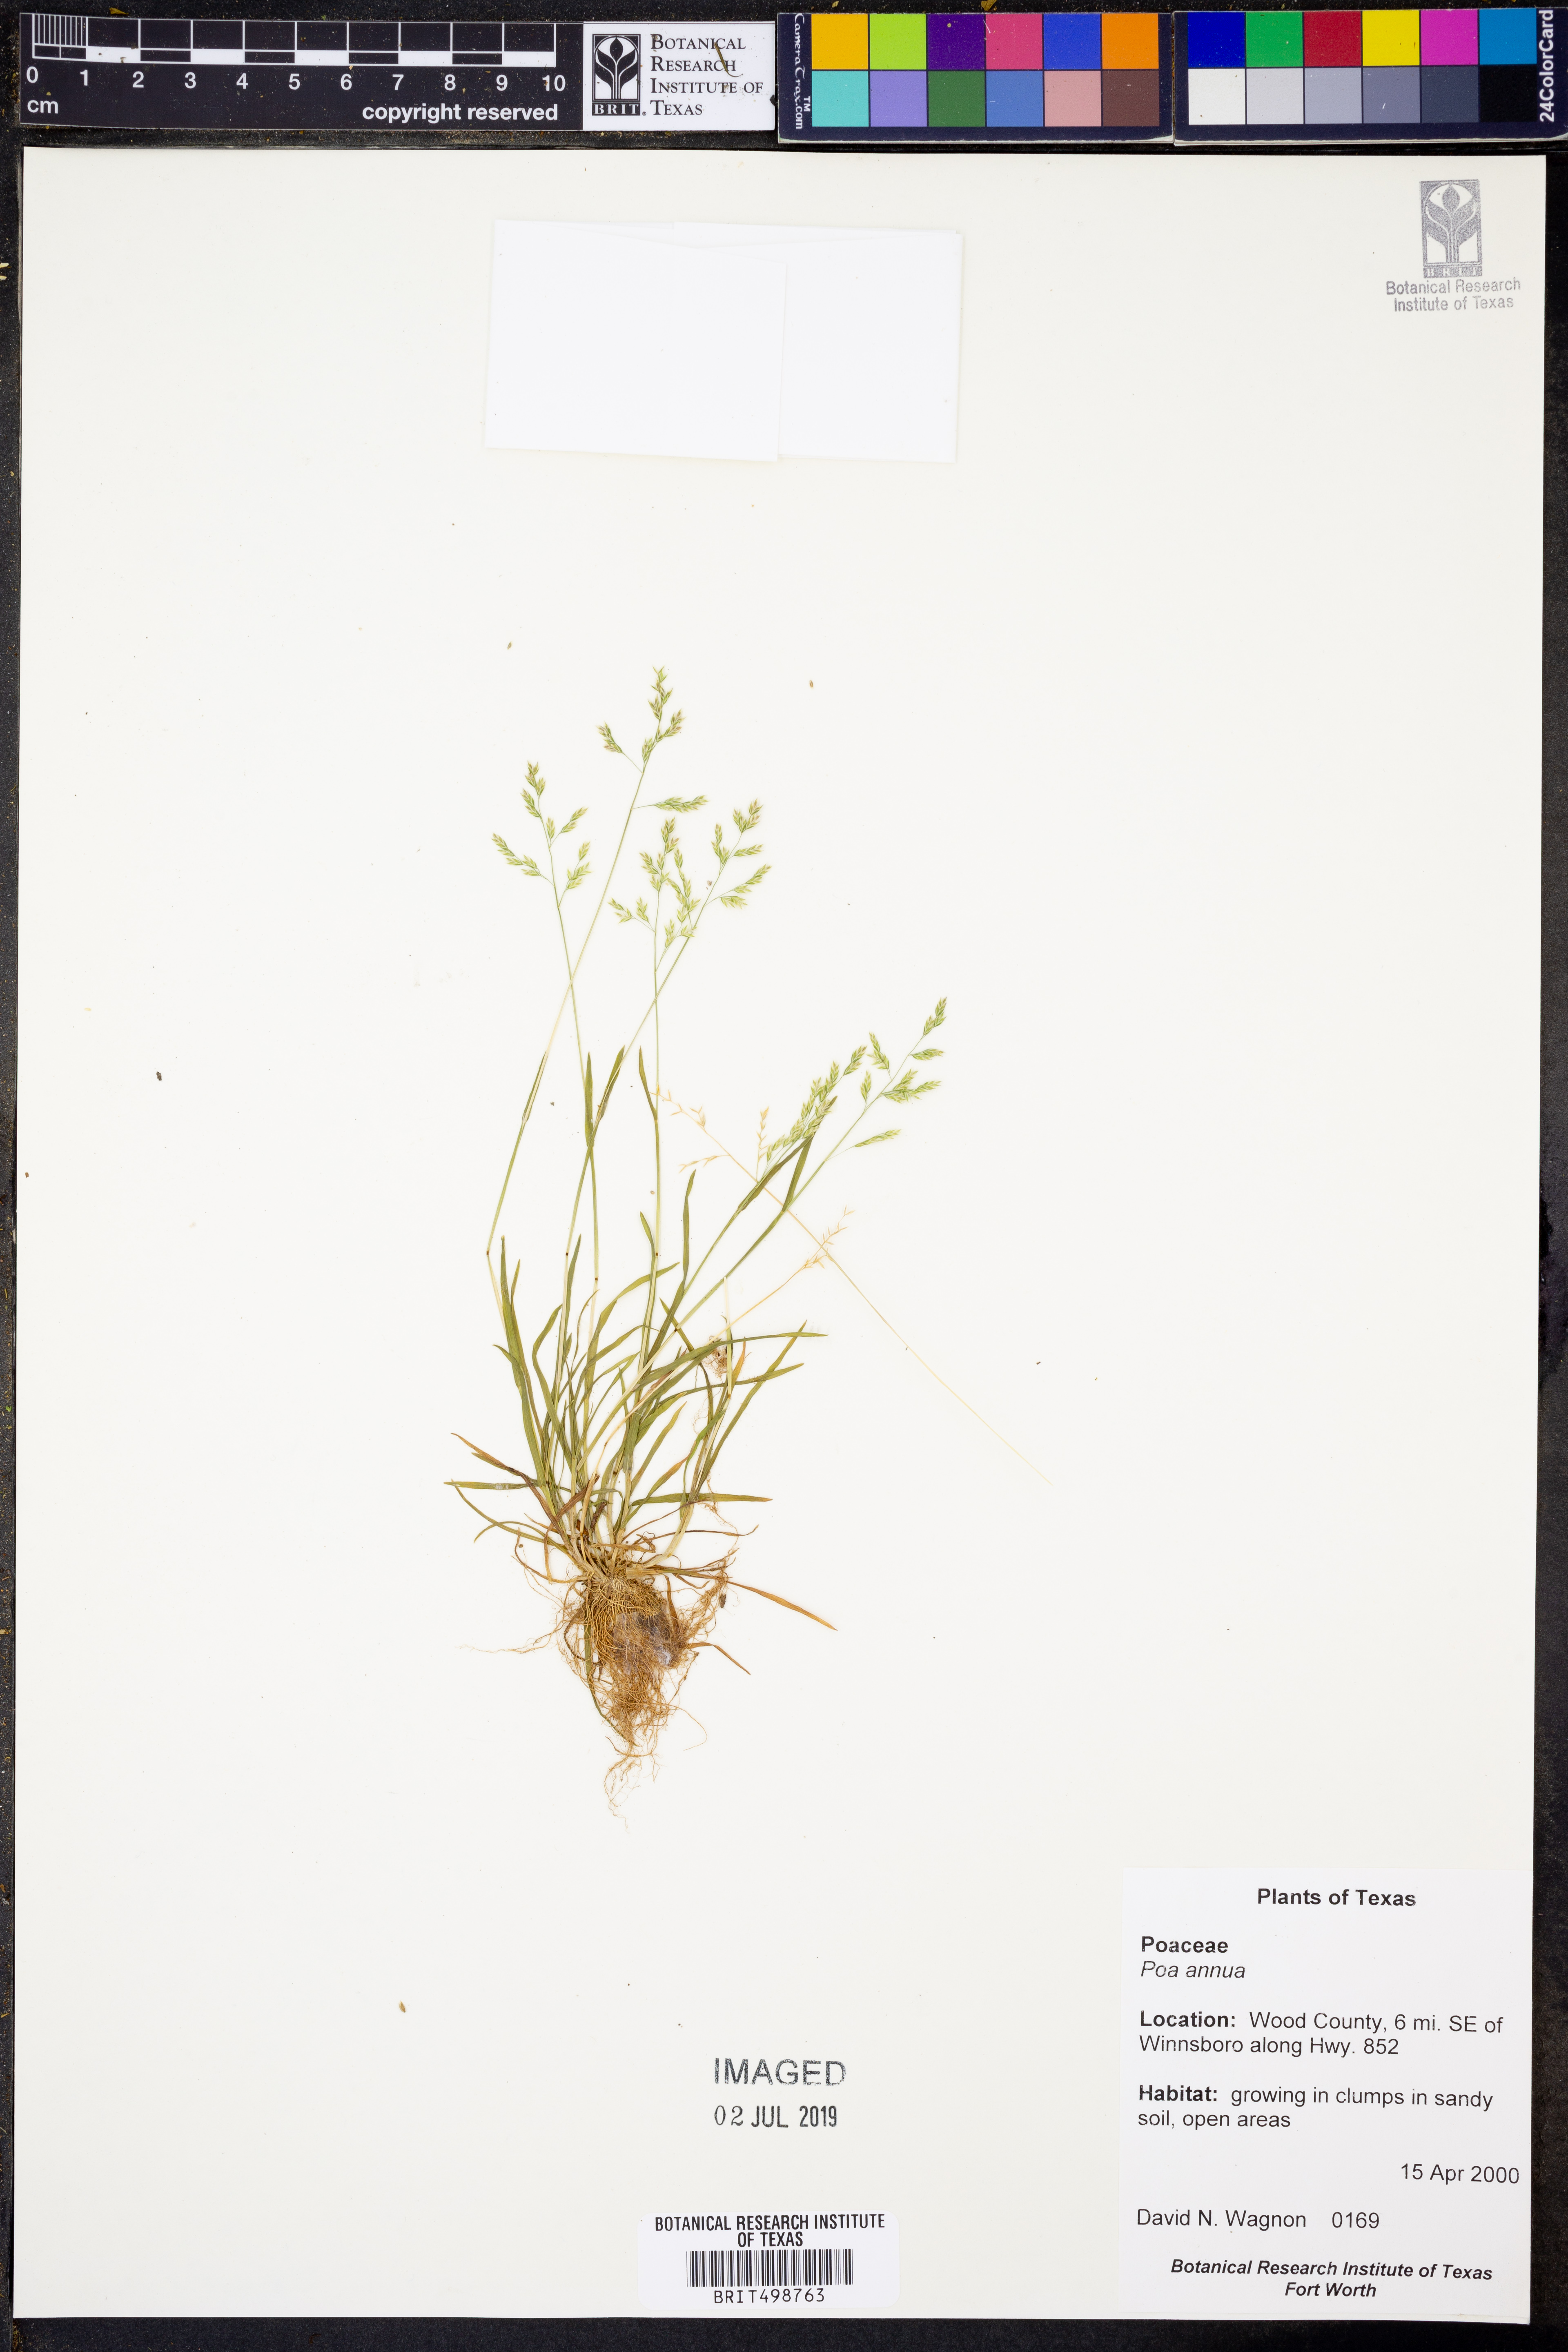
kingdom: Plantae
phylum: Tracheophyta
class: Liliopsida
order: Poales
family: Poaceae
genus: Poa
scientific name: Poa annua
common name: Annual bluegrass
